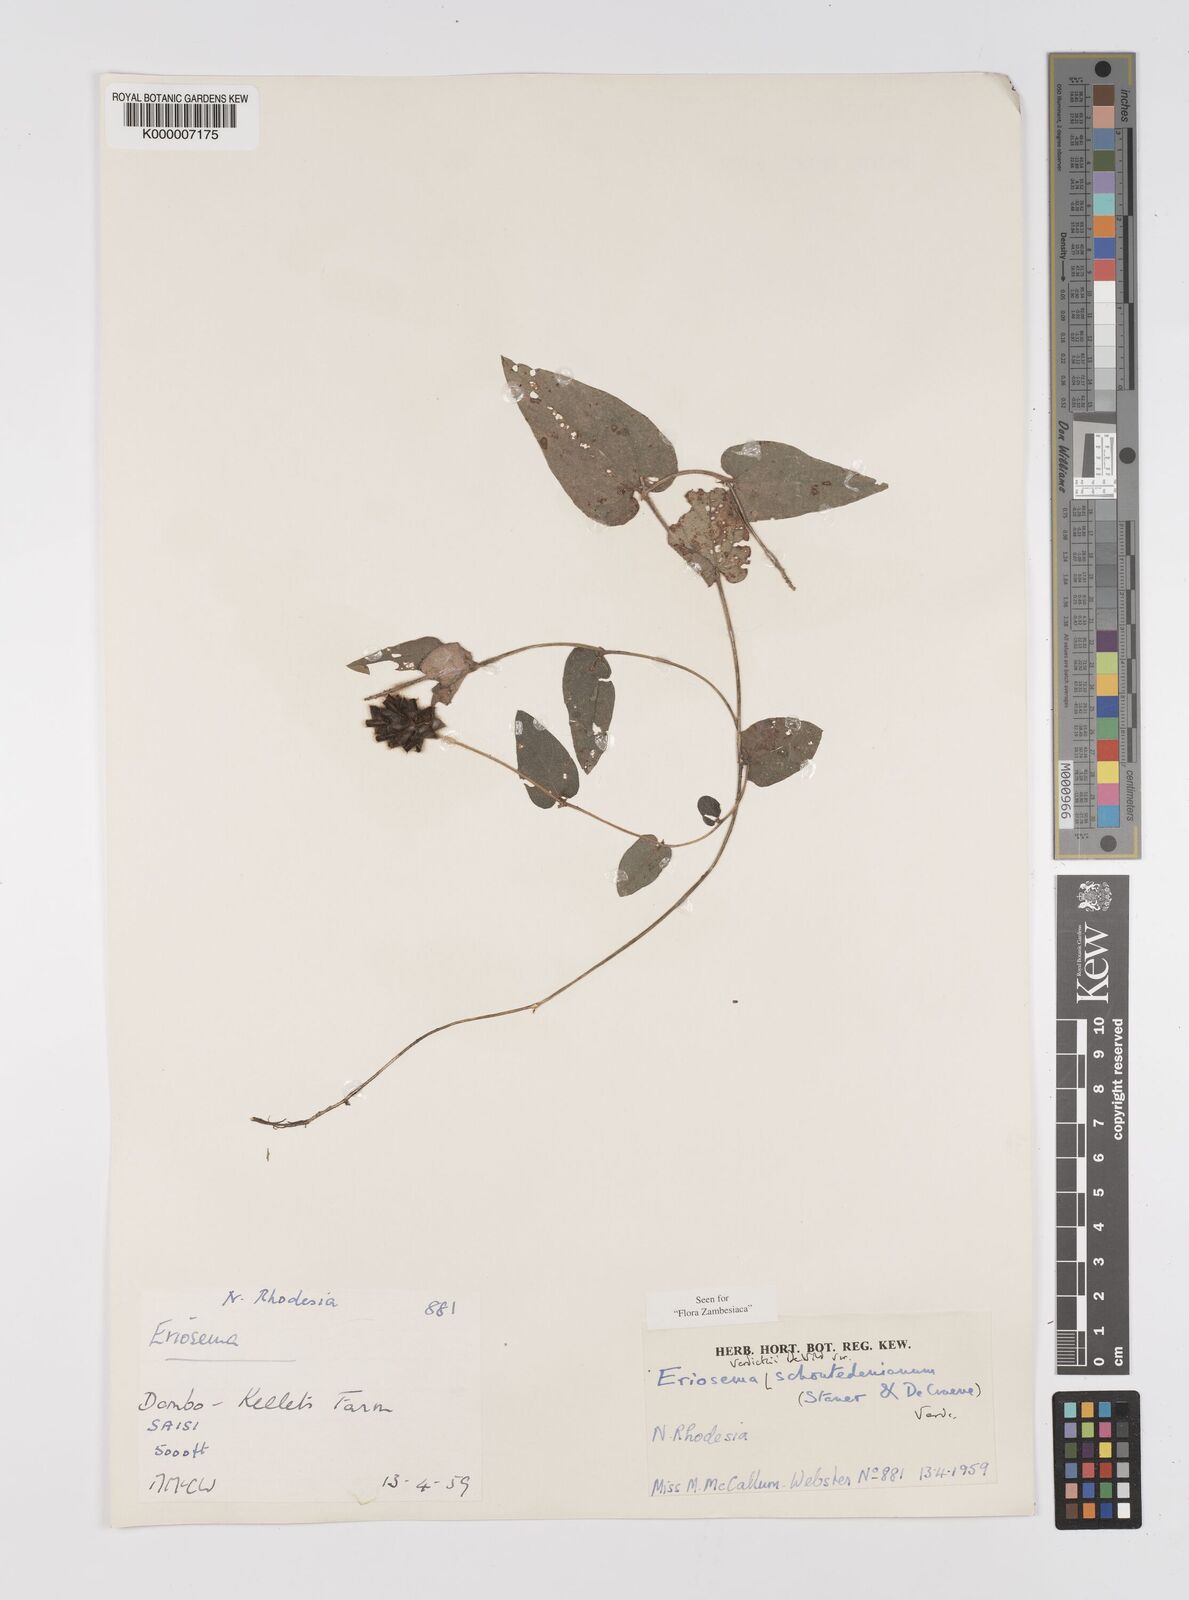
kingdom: Plantae
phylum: Tracheophyta
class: Magnoliopsida
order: Fabales
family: Fabaceae
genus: Eriosema
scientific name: Eriosema verdickii
